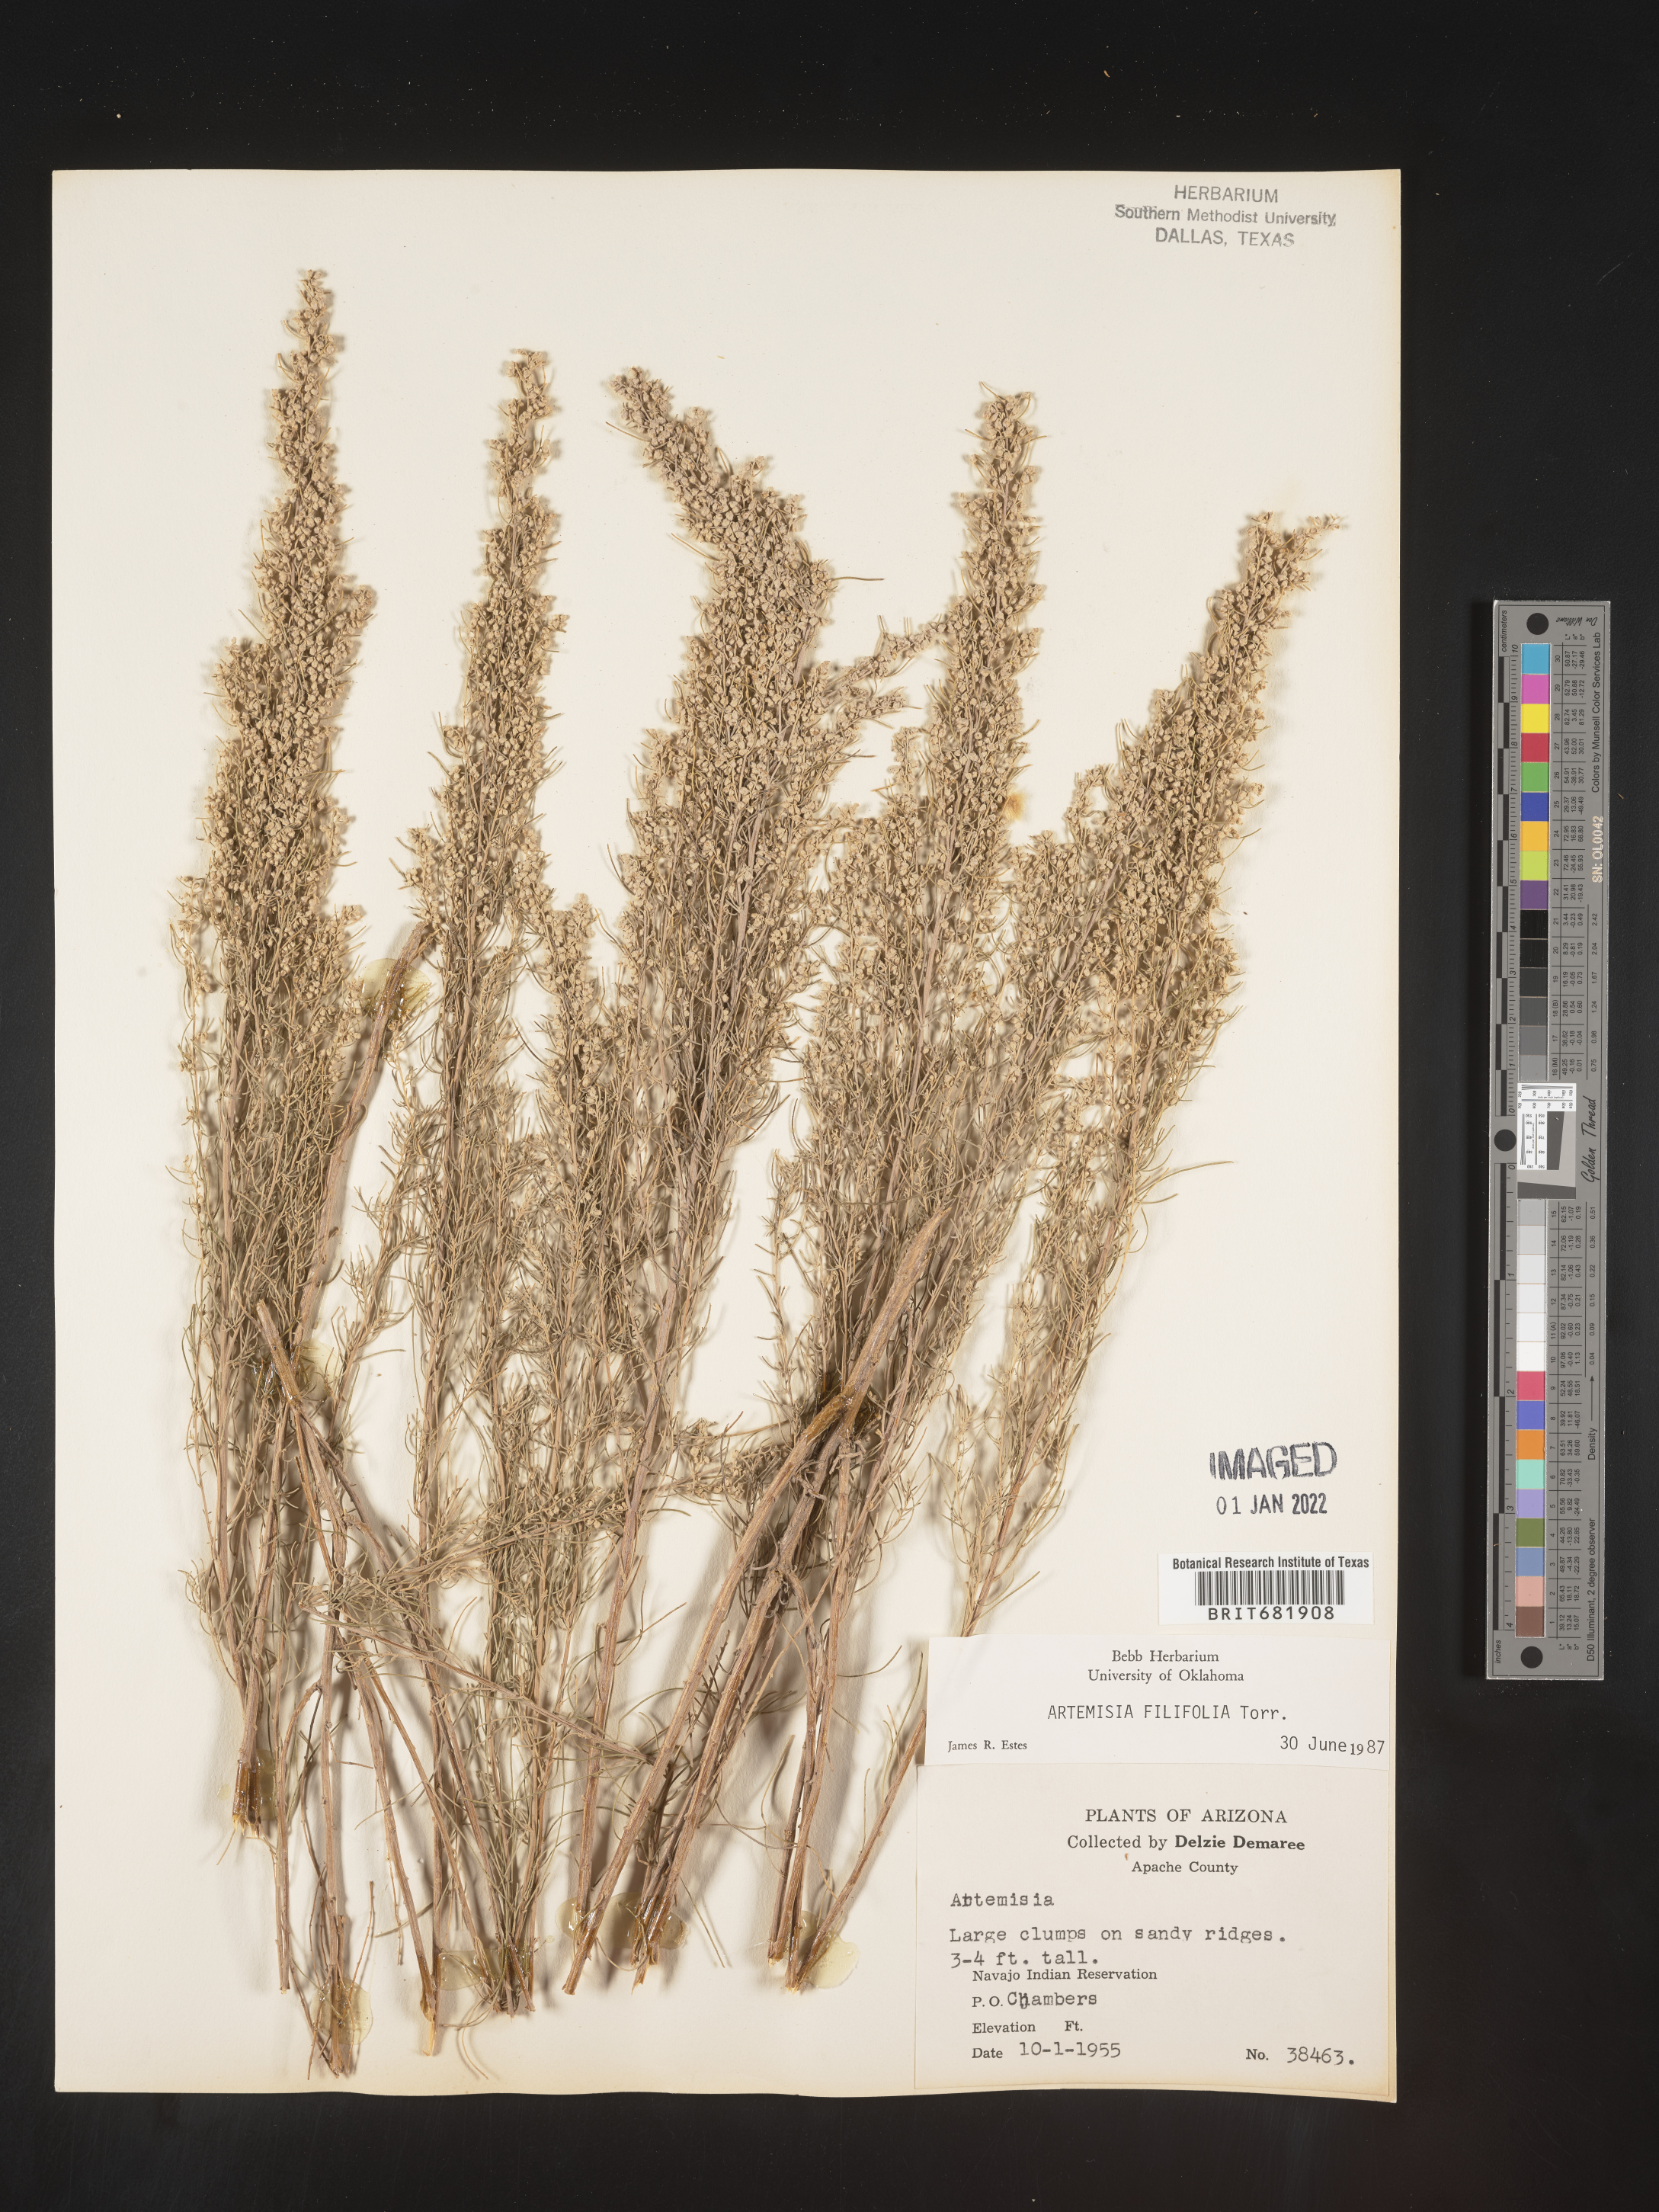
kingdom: Plantae
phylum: Tracheophyta
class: Magnoliopsida
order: Asterales
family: Asteraceae
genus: Artemisia
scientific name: Artemisia filifolia
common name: Sand-sage
